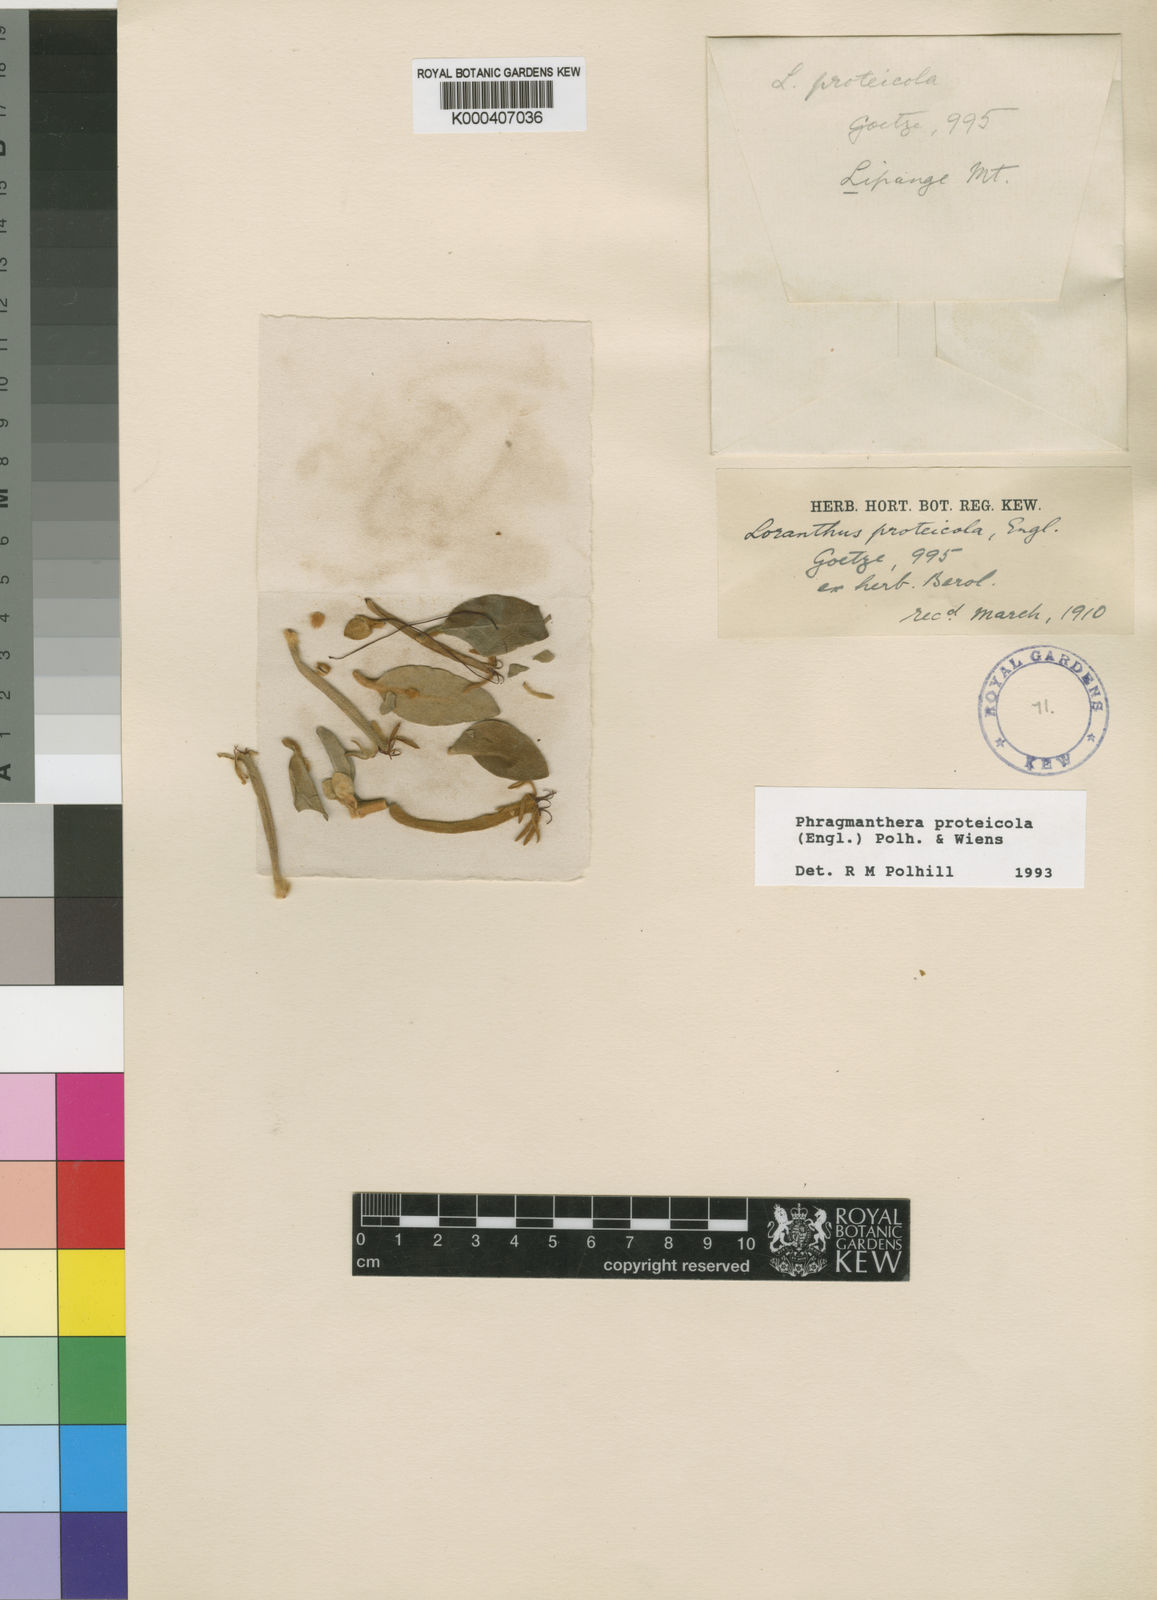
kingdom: Plantae
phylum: Tracheophyta
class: Magnoliopsida
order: Santalales
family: Loranthaceae
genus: Phragmanthera
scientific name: Phragmanthera proteicola
